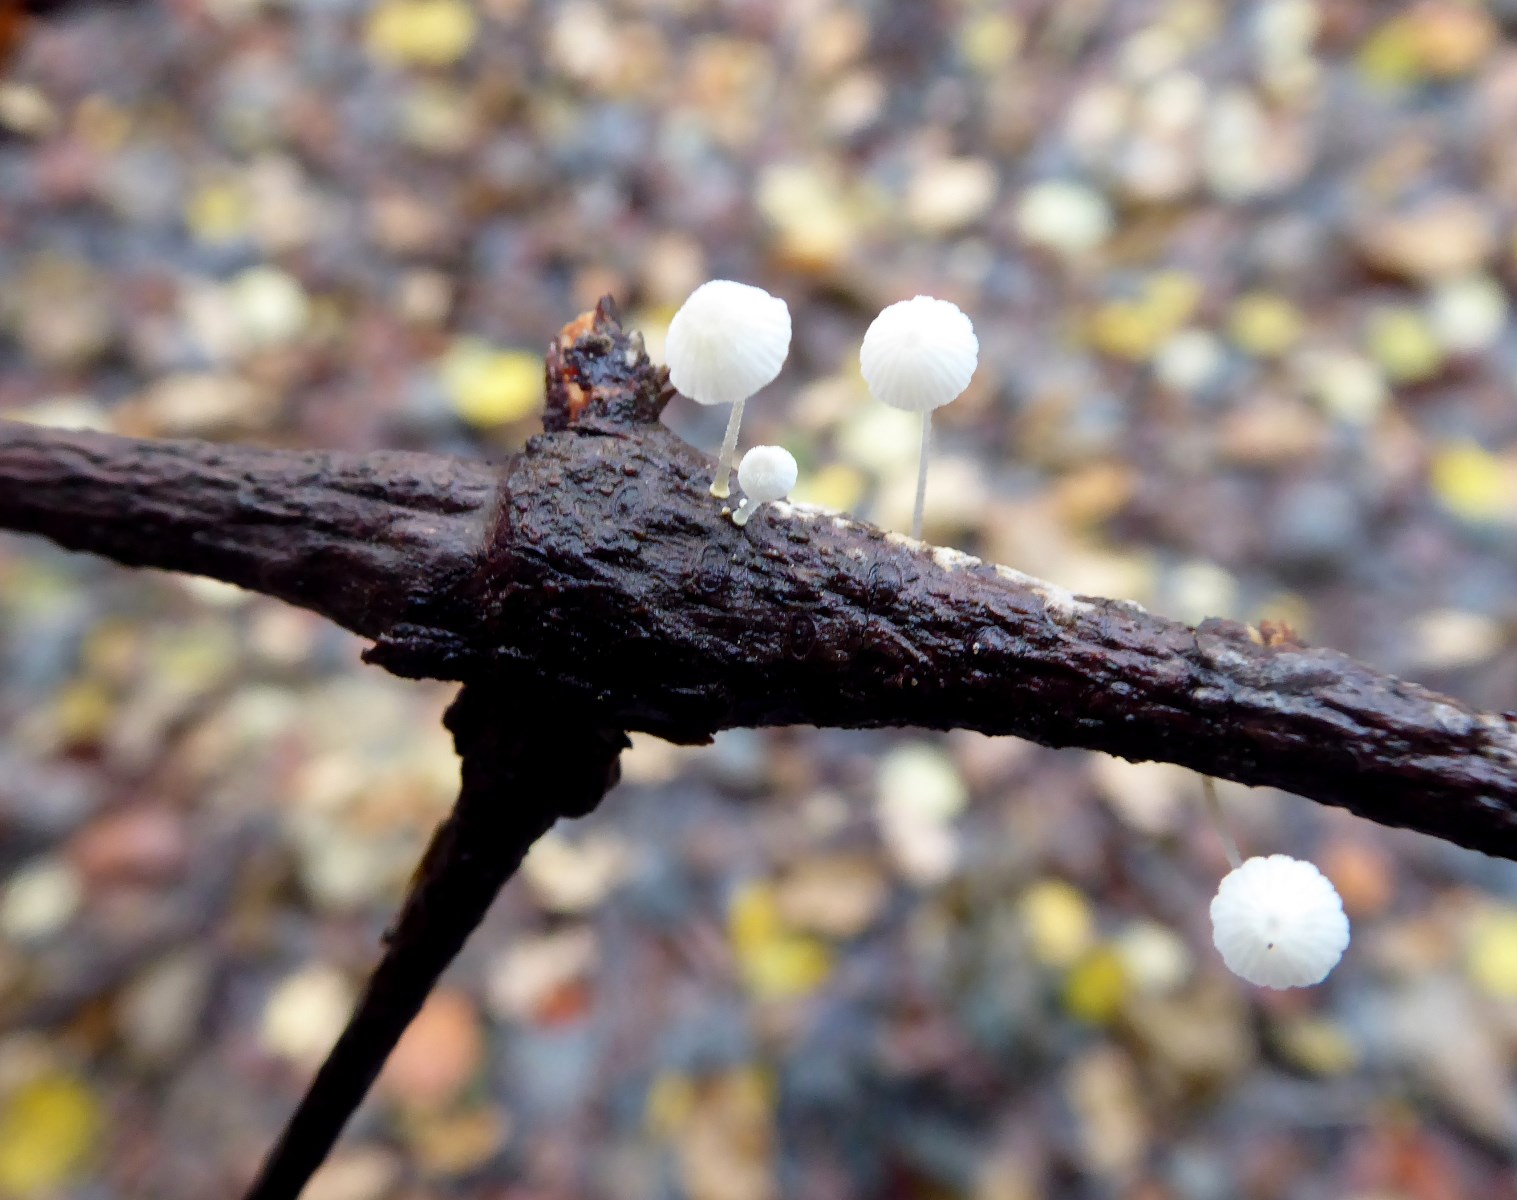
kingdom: Fungi
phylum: Basidiomycota
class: Agaricomycetes
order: Agaricales
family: Mycenaceae
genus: Mycena
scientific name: Mycena tenerrima
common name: pudret huesvamp
